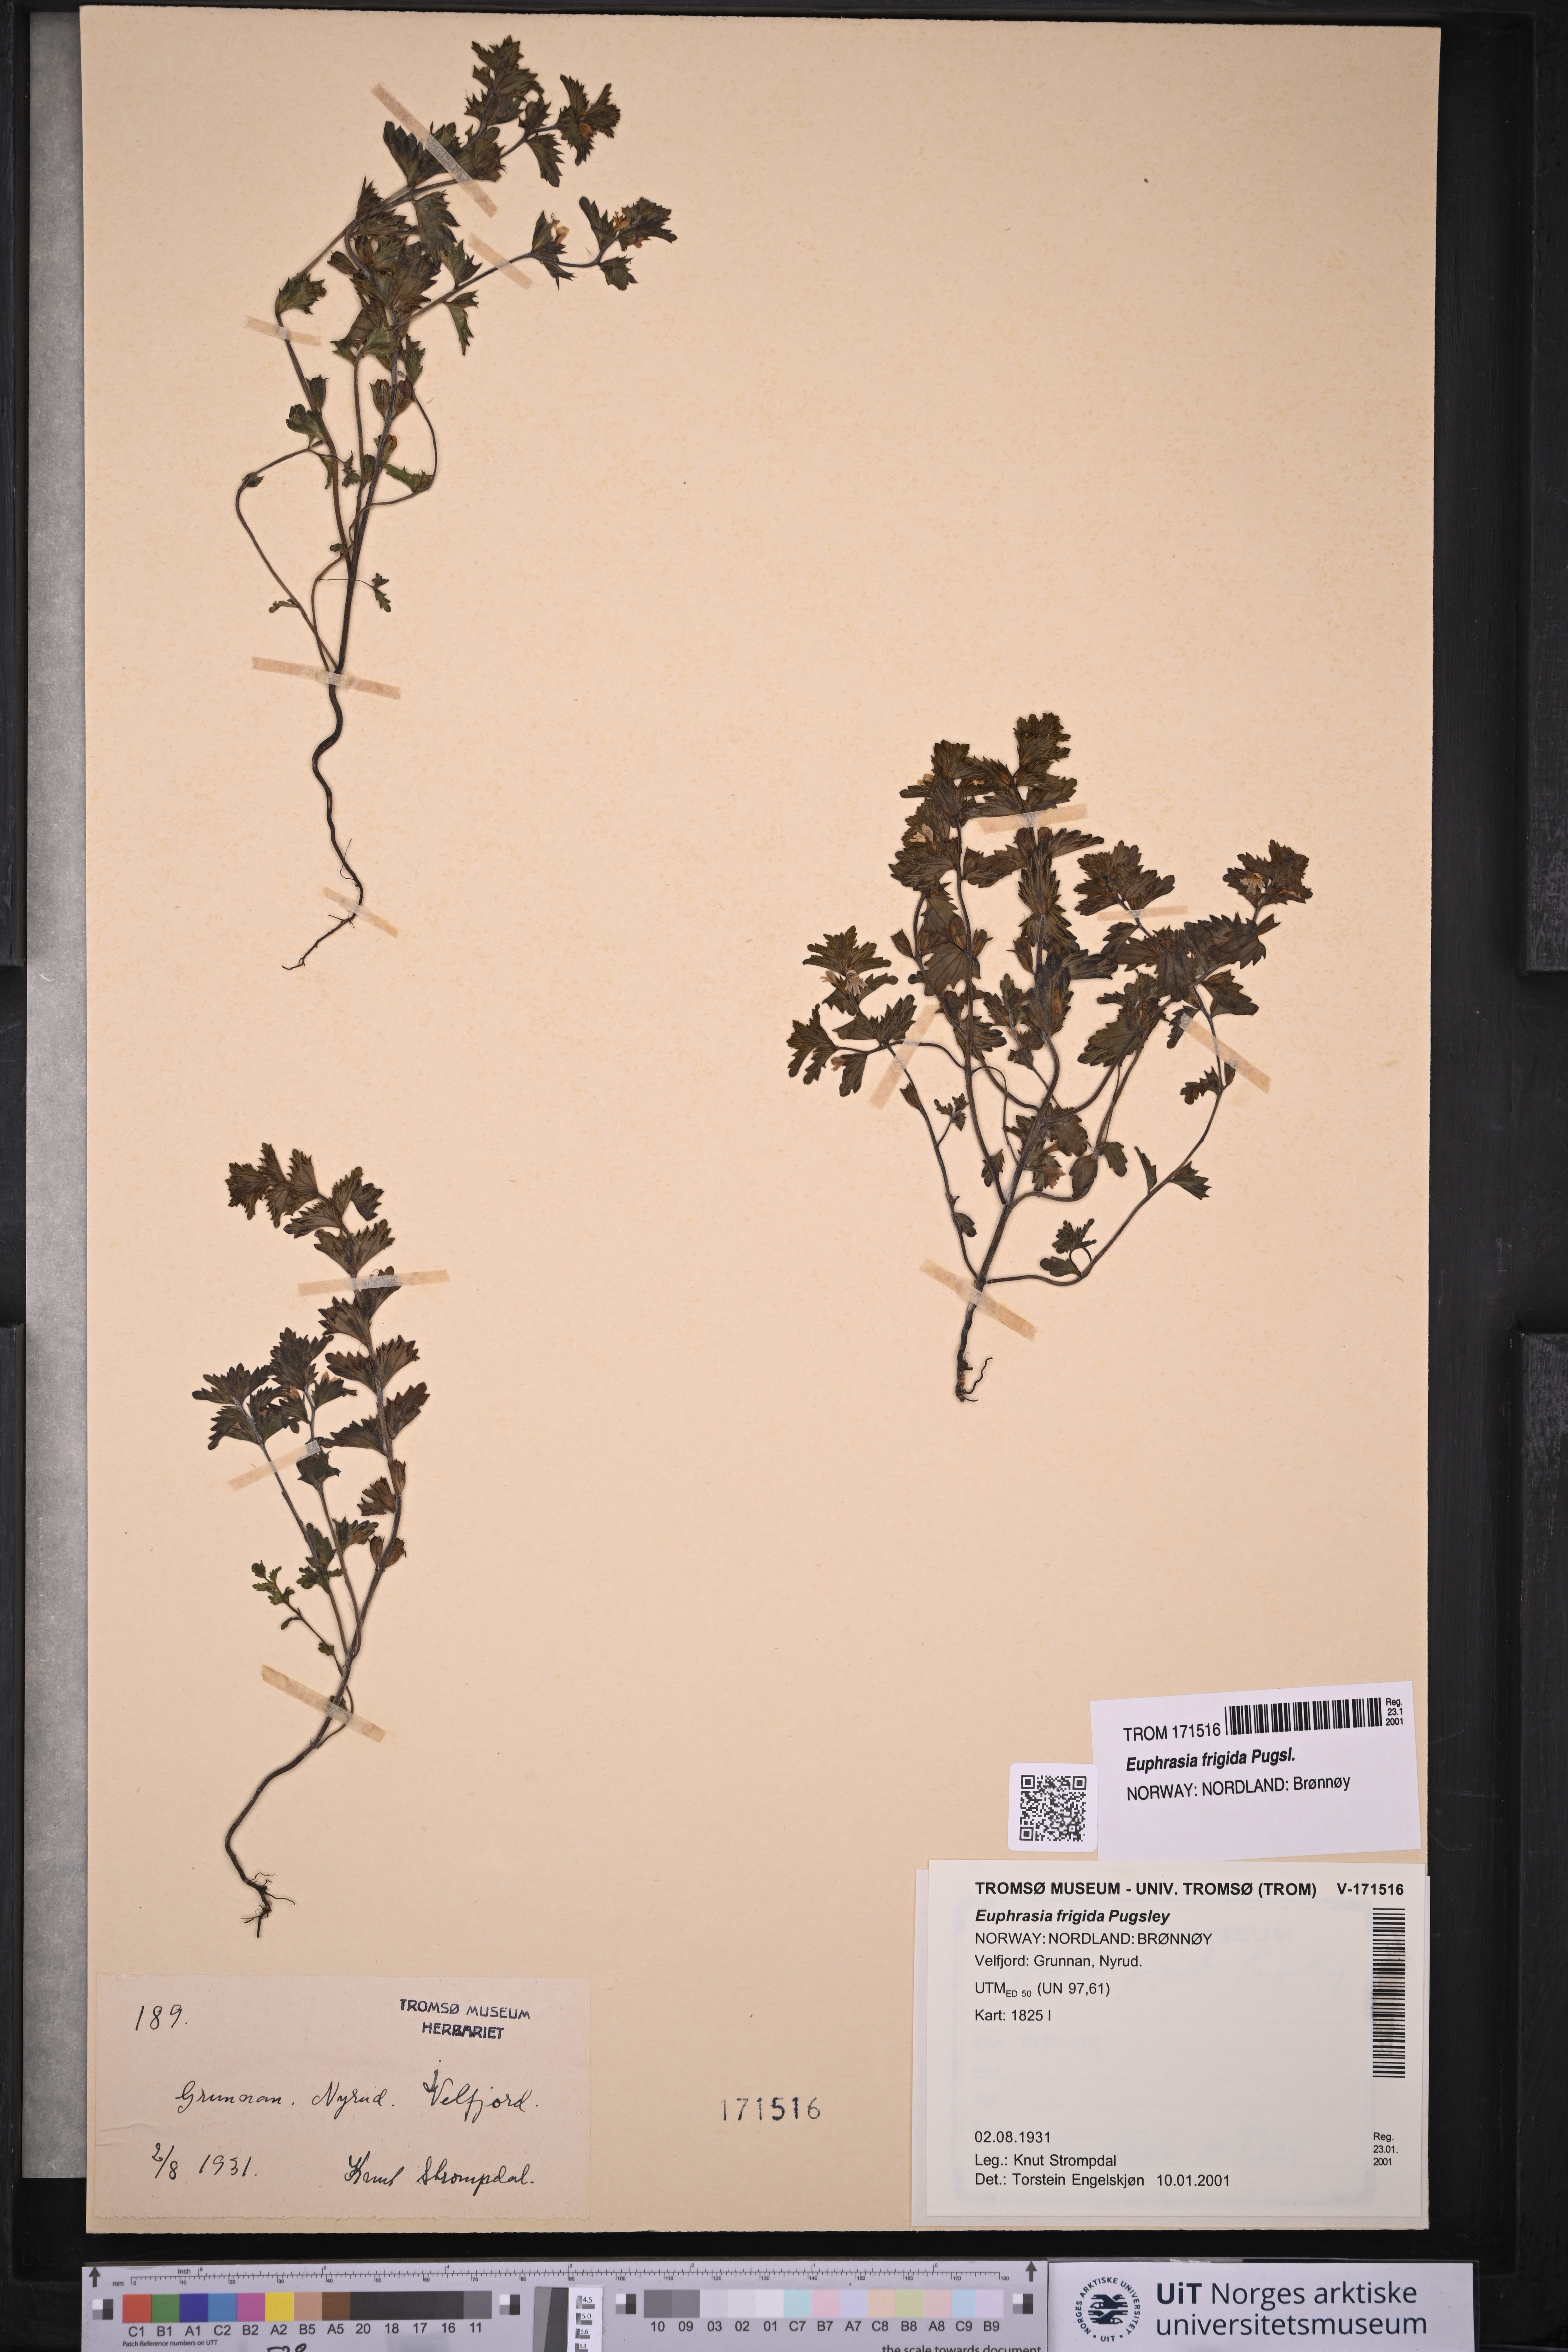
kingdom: Plantae
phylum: Tracheophyta
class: Magnoliopsida
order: Lamiales
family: Orobanchaceae
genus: Euphrasia
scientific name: Euphrasia frigida
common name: An eyebright
